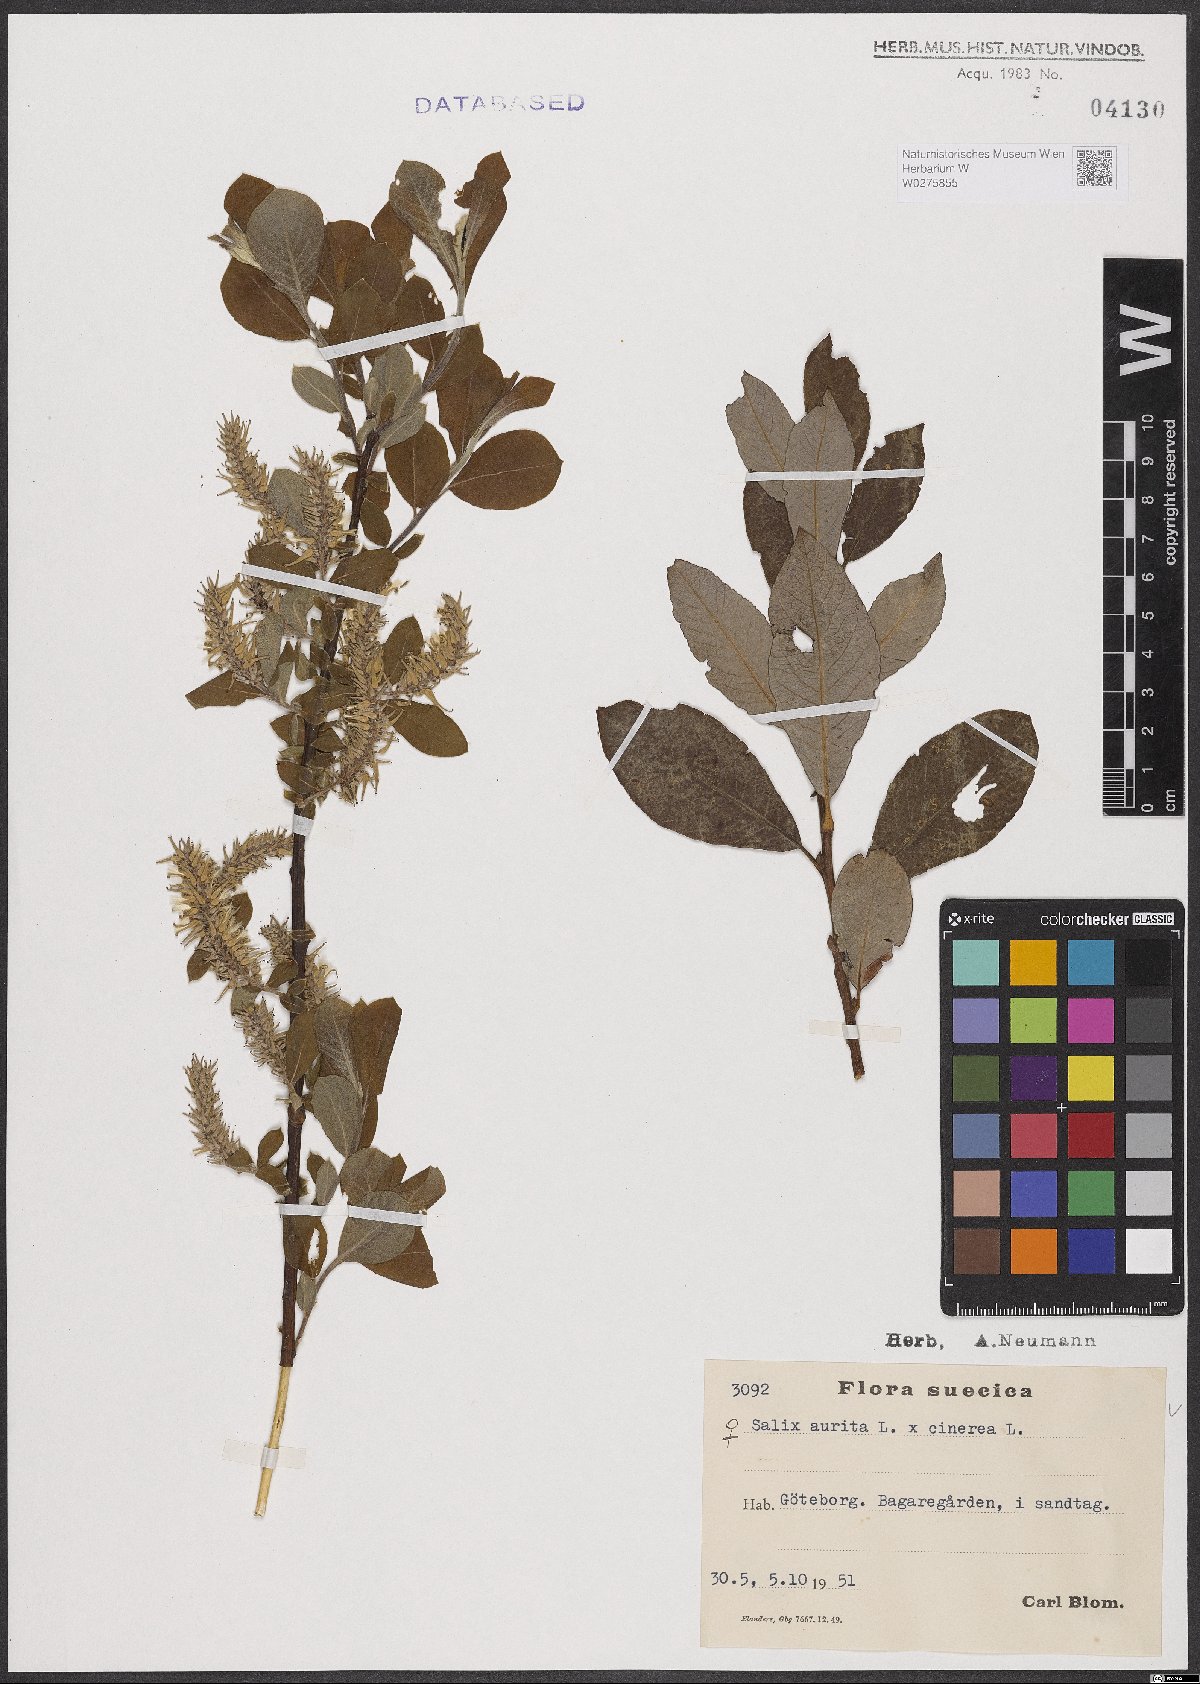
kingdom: Plantae
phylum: Tracheophyta
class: Magnoliopsida
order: Malpighiales
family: Salicaceae
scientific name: Salicaceae
